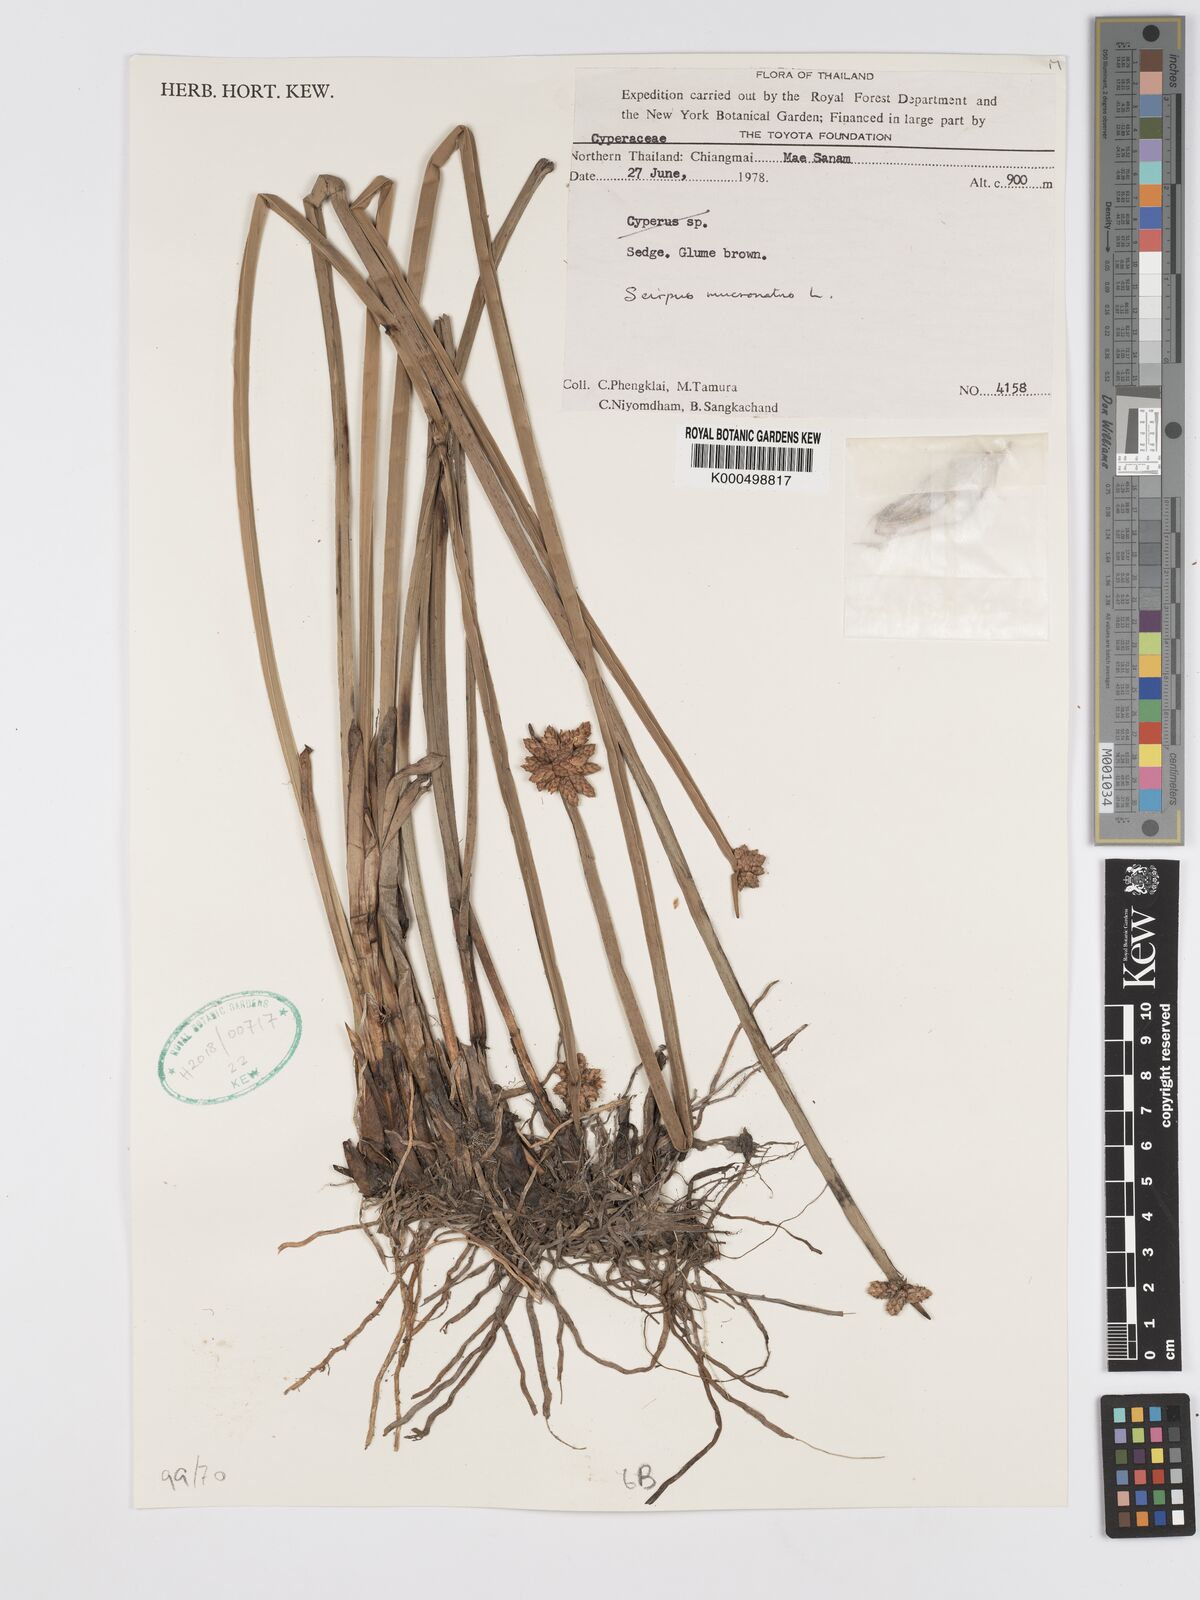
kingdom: Plantae
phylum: Tracheophyta
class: Liliopsida
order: Poales
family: Cyperaceae
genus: Schoenoplectiella
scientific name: Schoenoplectiella mucronata
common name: Bog bulrush
